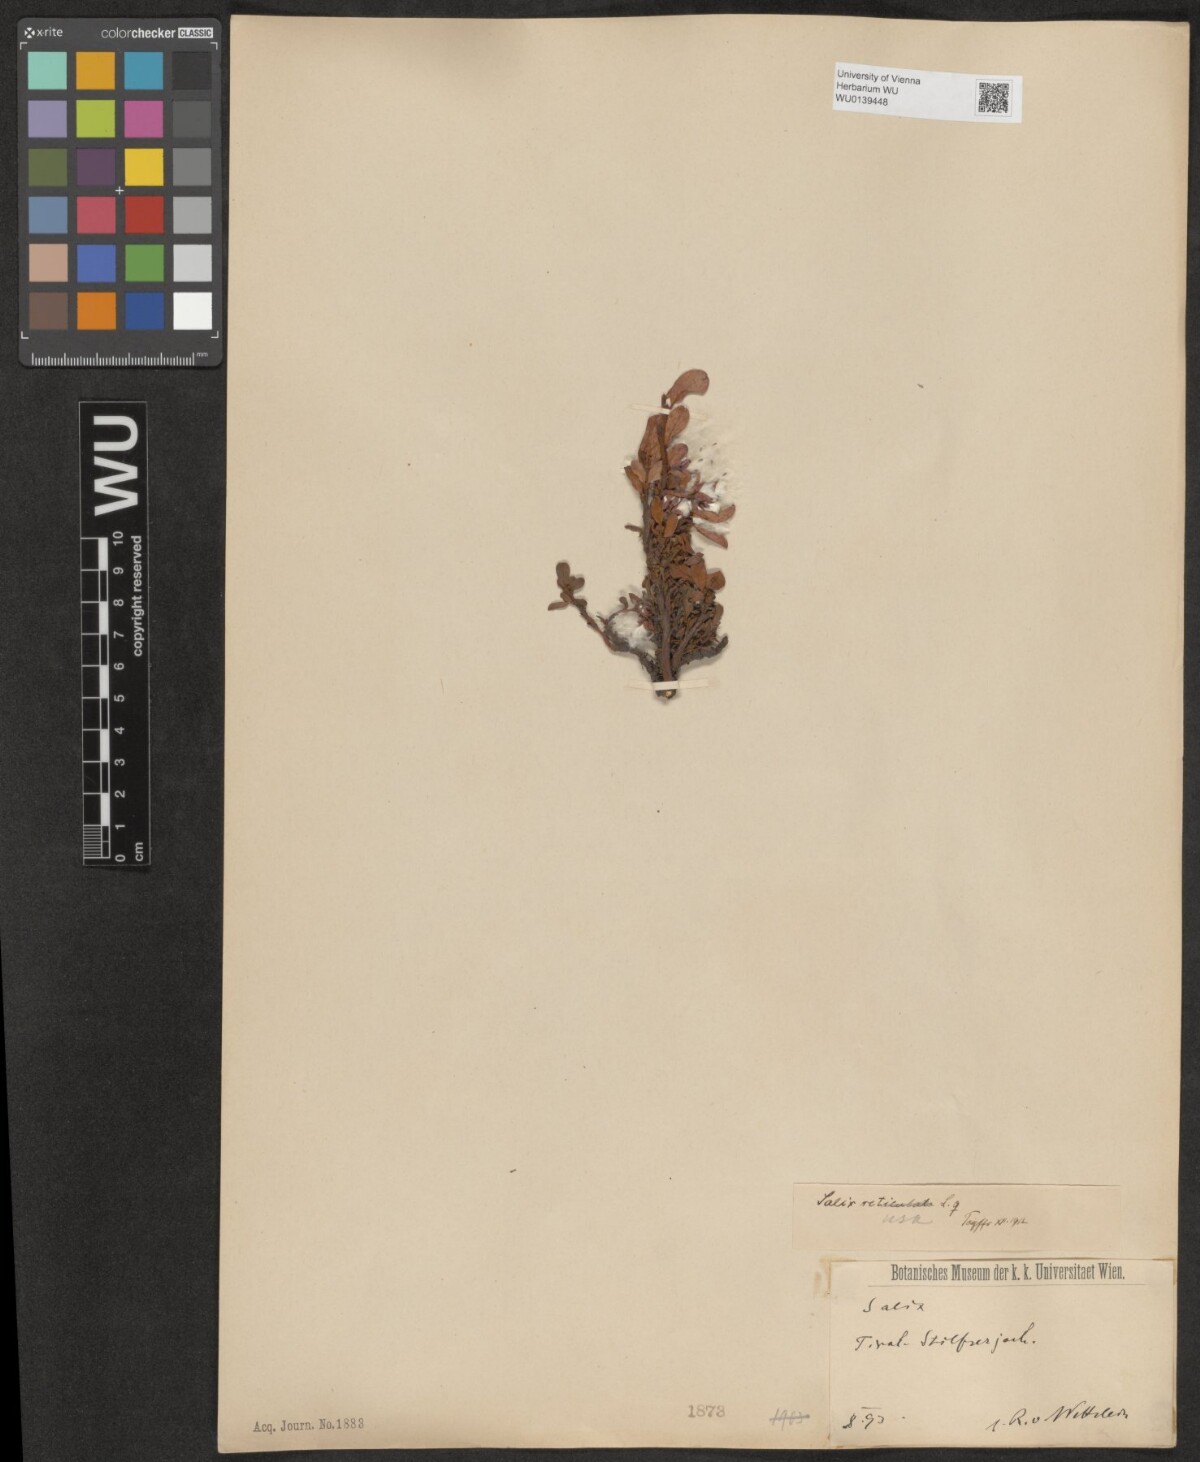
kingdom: Plantae
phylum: Tracheophyta
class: Magnoliopsida
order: Malpighiales
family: Salicaceae
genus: Salix
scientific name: Salix retusa
